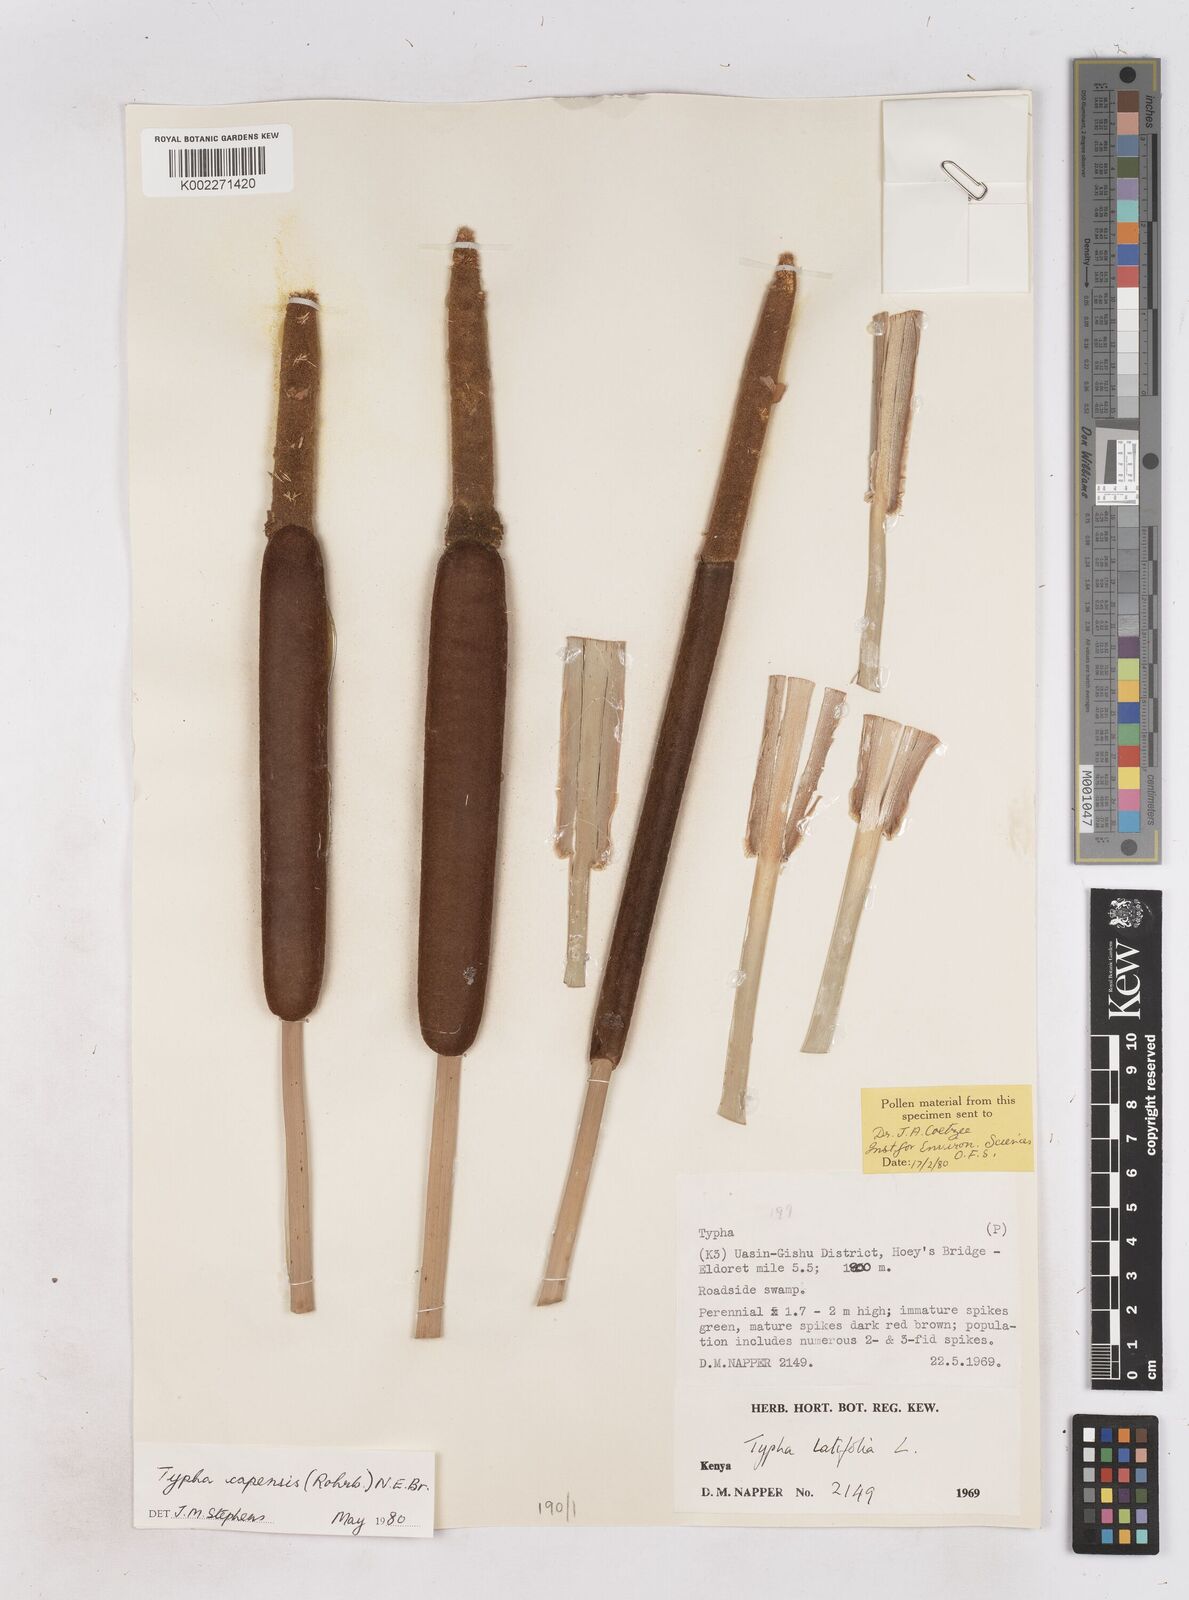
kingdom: Plantae
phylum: Tracheophyta
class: Liliopsida
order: Poales
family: Typhaceae
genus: Typha
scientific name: Typha capensis
